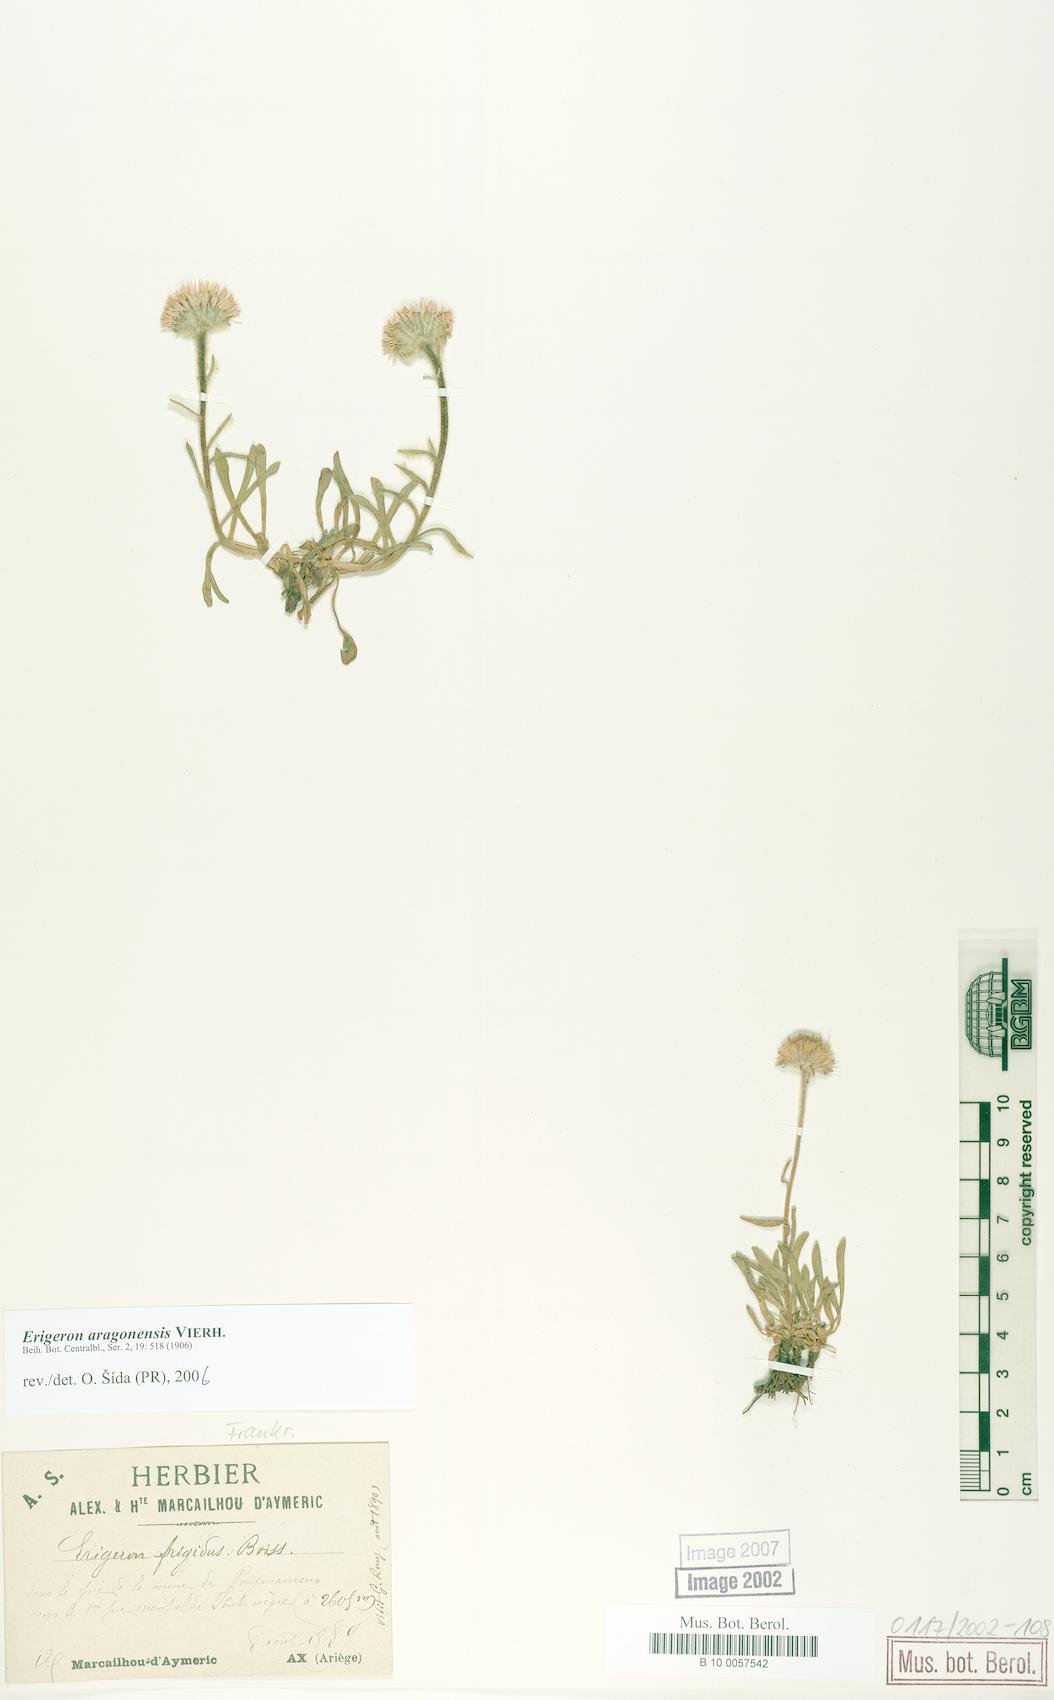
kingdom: Plantae
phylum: Tracheophyta
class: Magnoliopsida
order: Asterales
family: Asteraceae
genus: Erigeron
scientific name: Erigeron aragonensis
